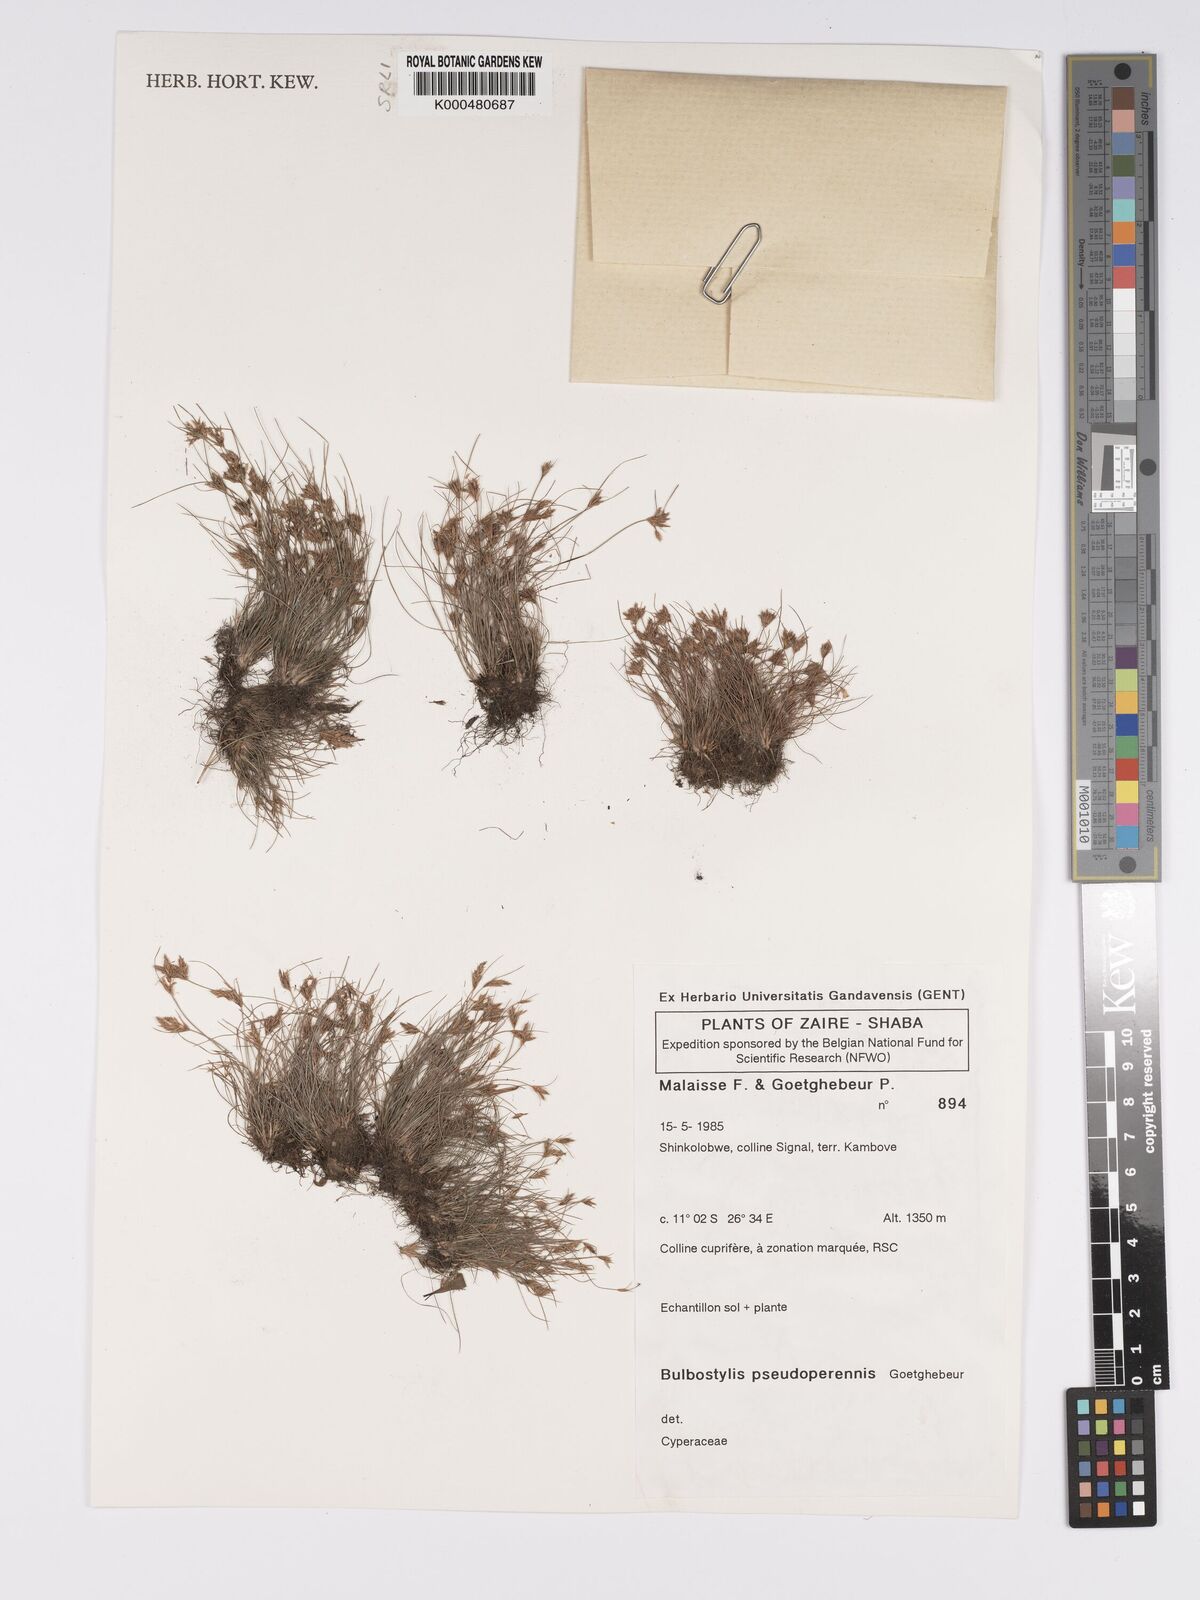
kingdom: Plantae
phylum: Tracheophyta
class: Liliopsida
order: Poales
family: Cyperaceae
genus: Bulbostylis
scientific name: Bulbostylis abbreviata
